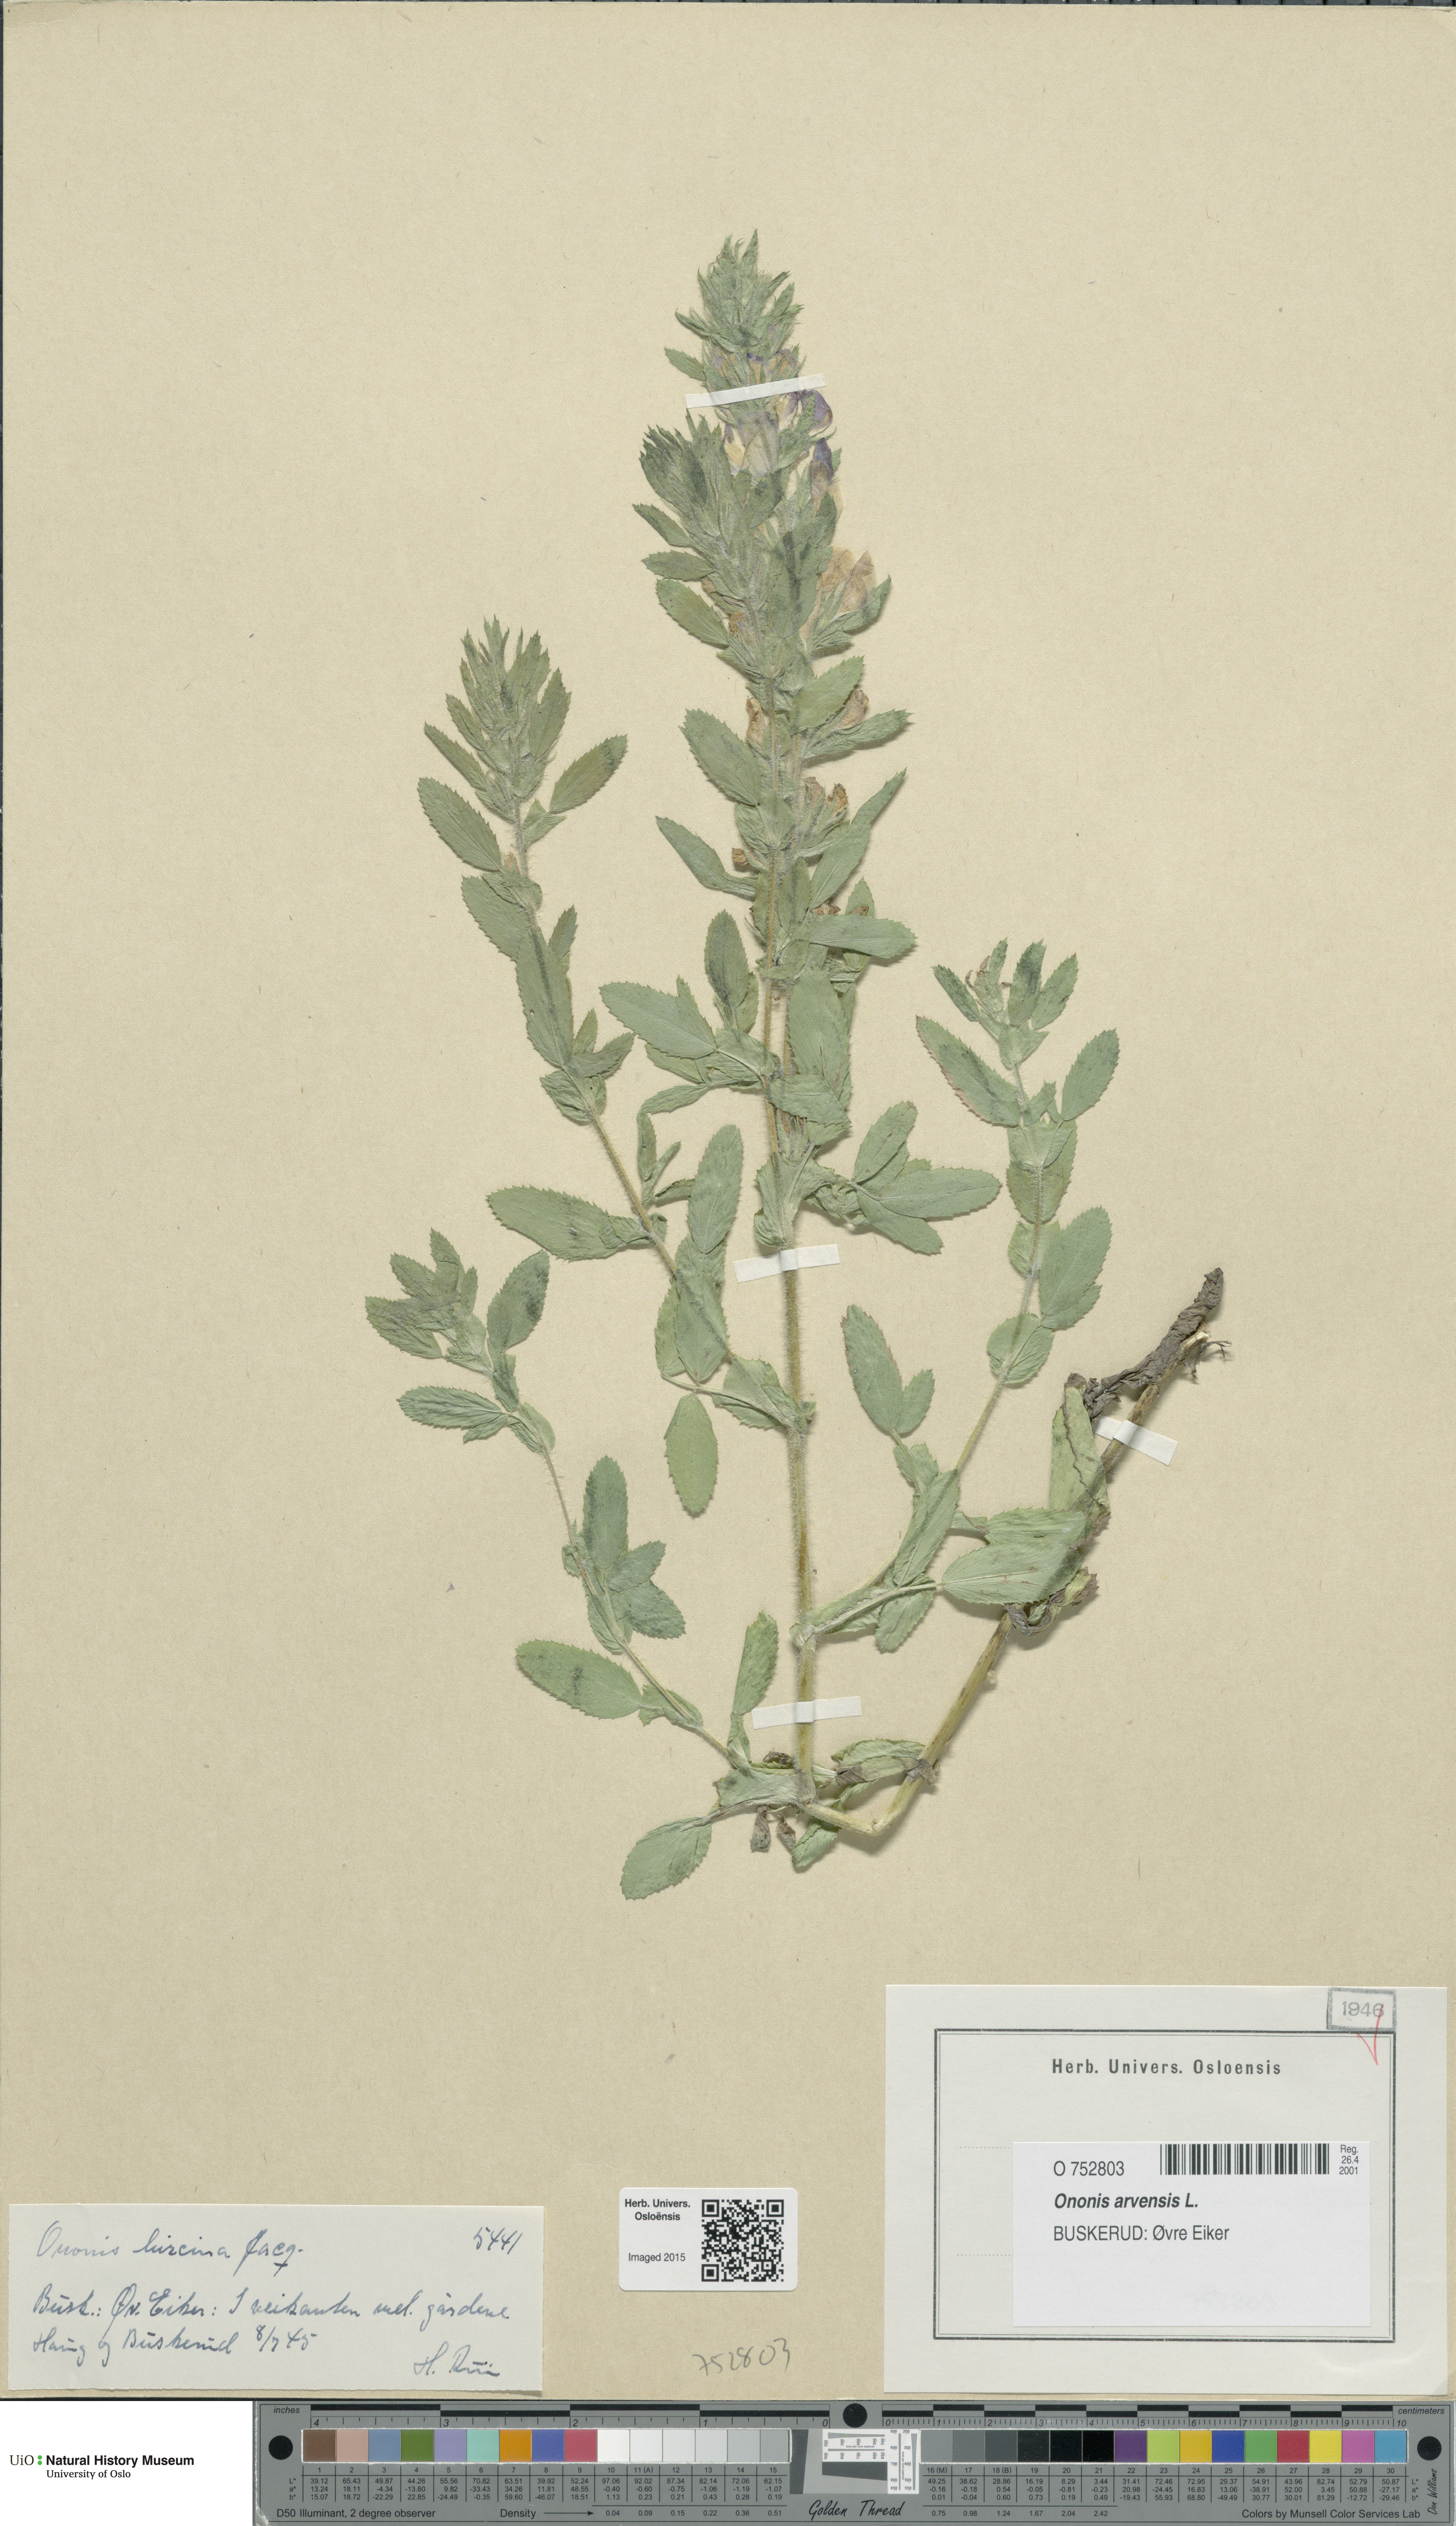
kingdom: Plantae
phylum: Tracheophyta
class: Magnoliopsida
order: Fabales
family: Fabaceae
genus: Ononis
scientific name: Ononis arvensis
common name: Field restharrow
